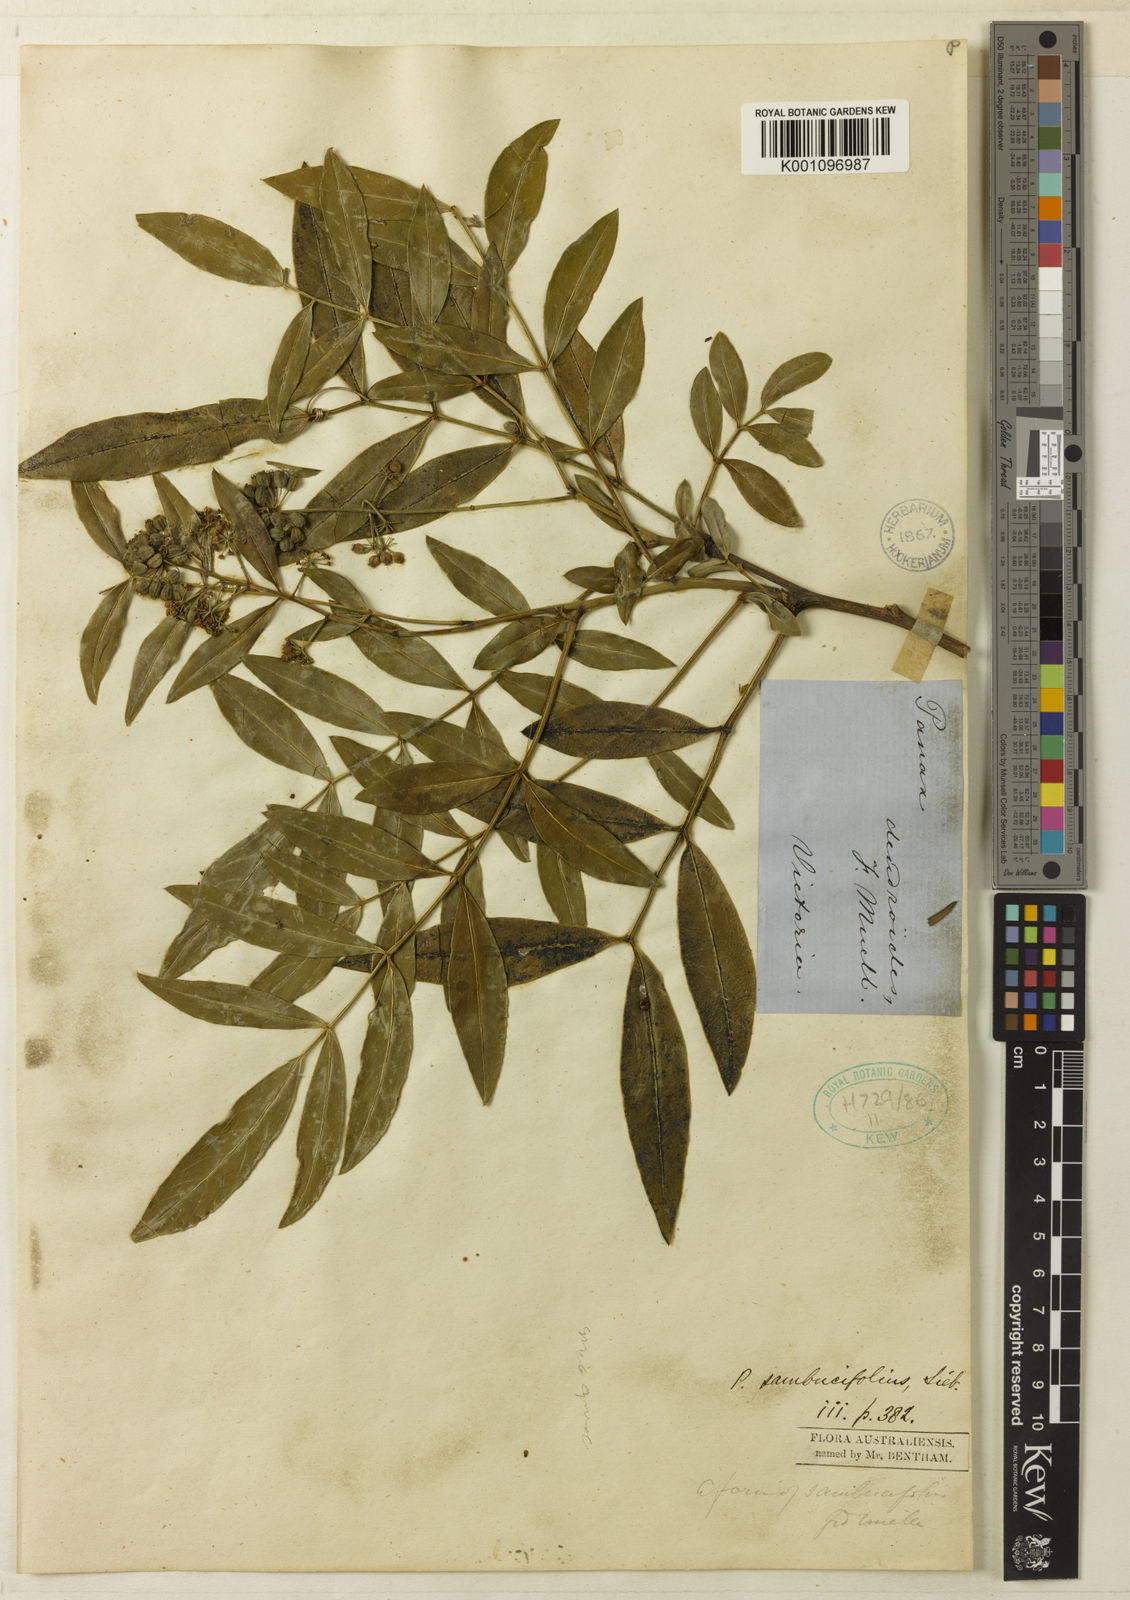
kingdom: Plantae
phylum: Tracheophyta
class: Magnoliopsida
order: Apiales
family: Araliaceae
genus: Polyscias
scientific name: Polyscias sambucifolia
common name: Elderberry-ash
